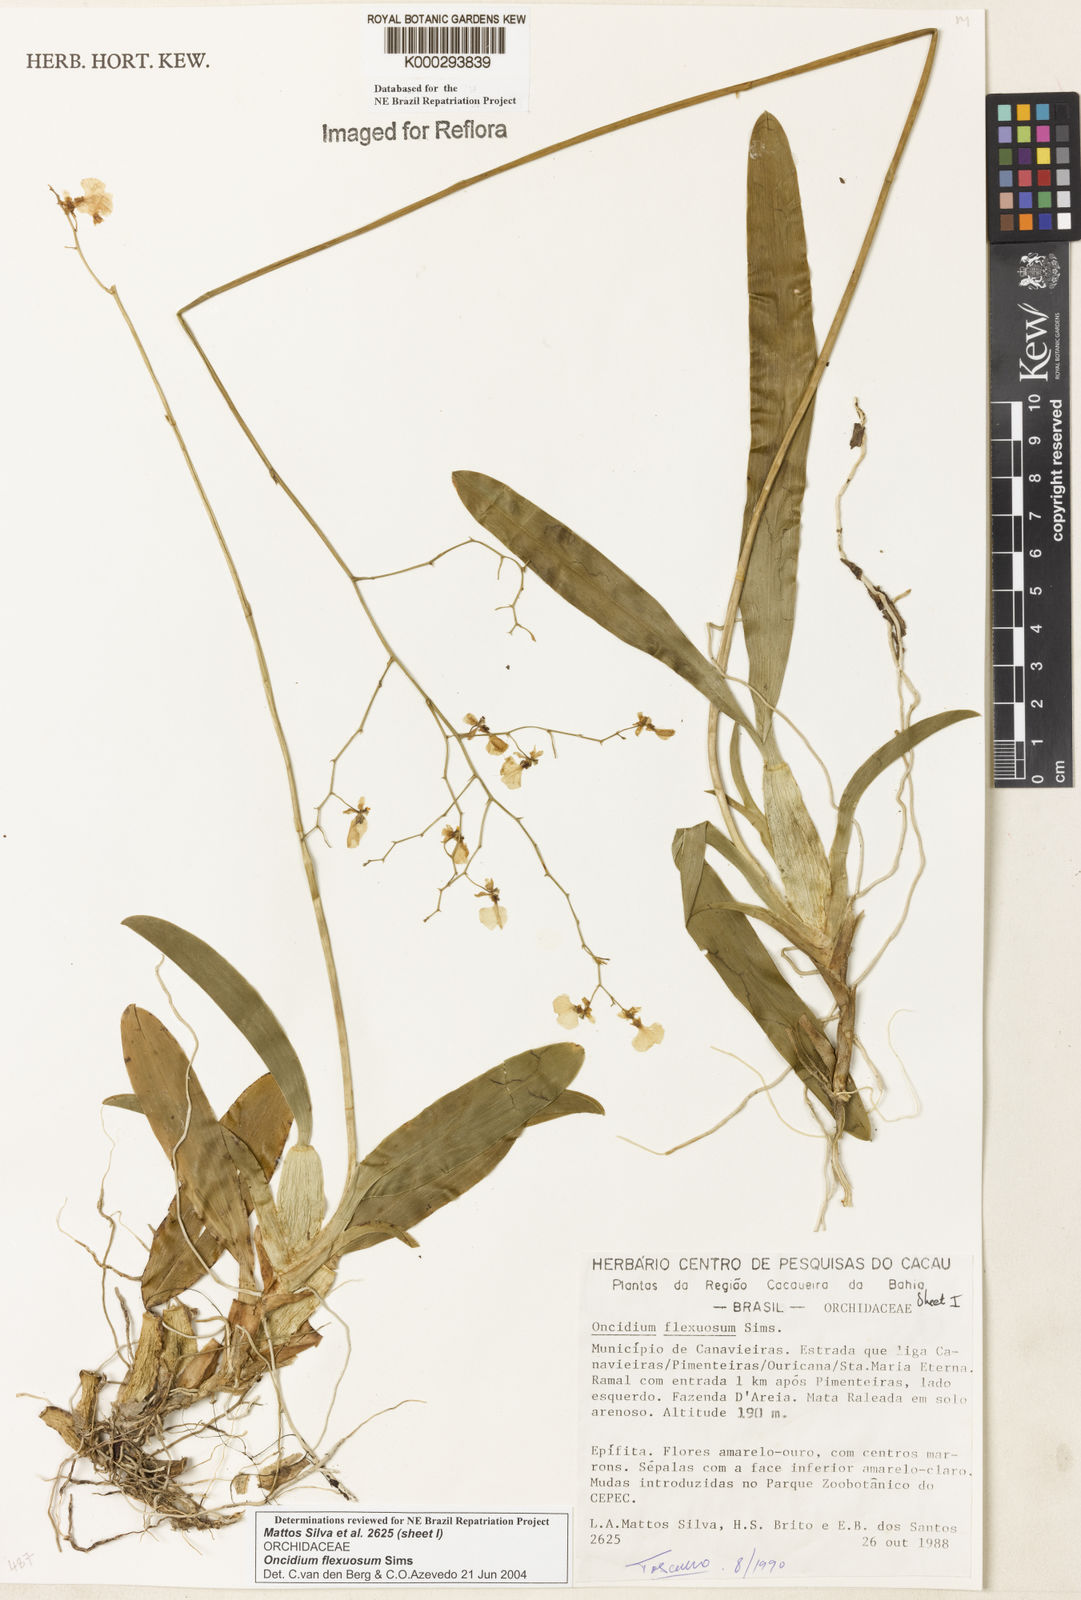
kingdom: Plantae
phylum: Tracheophyta
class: Liliopsida
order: Asparagales
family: Orchidaceae
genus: Gomesa
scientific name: Gomesa flexuosa
